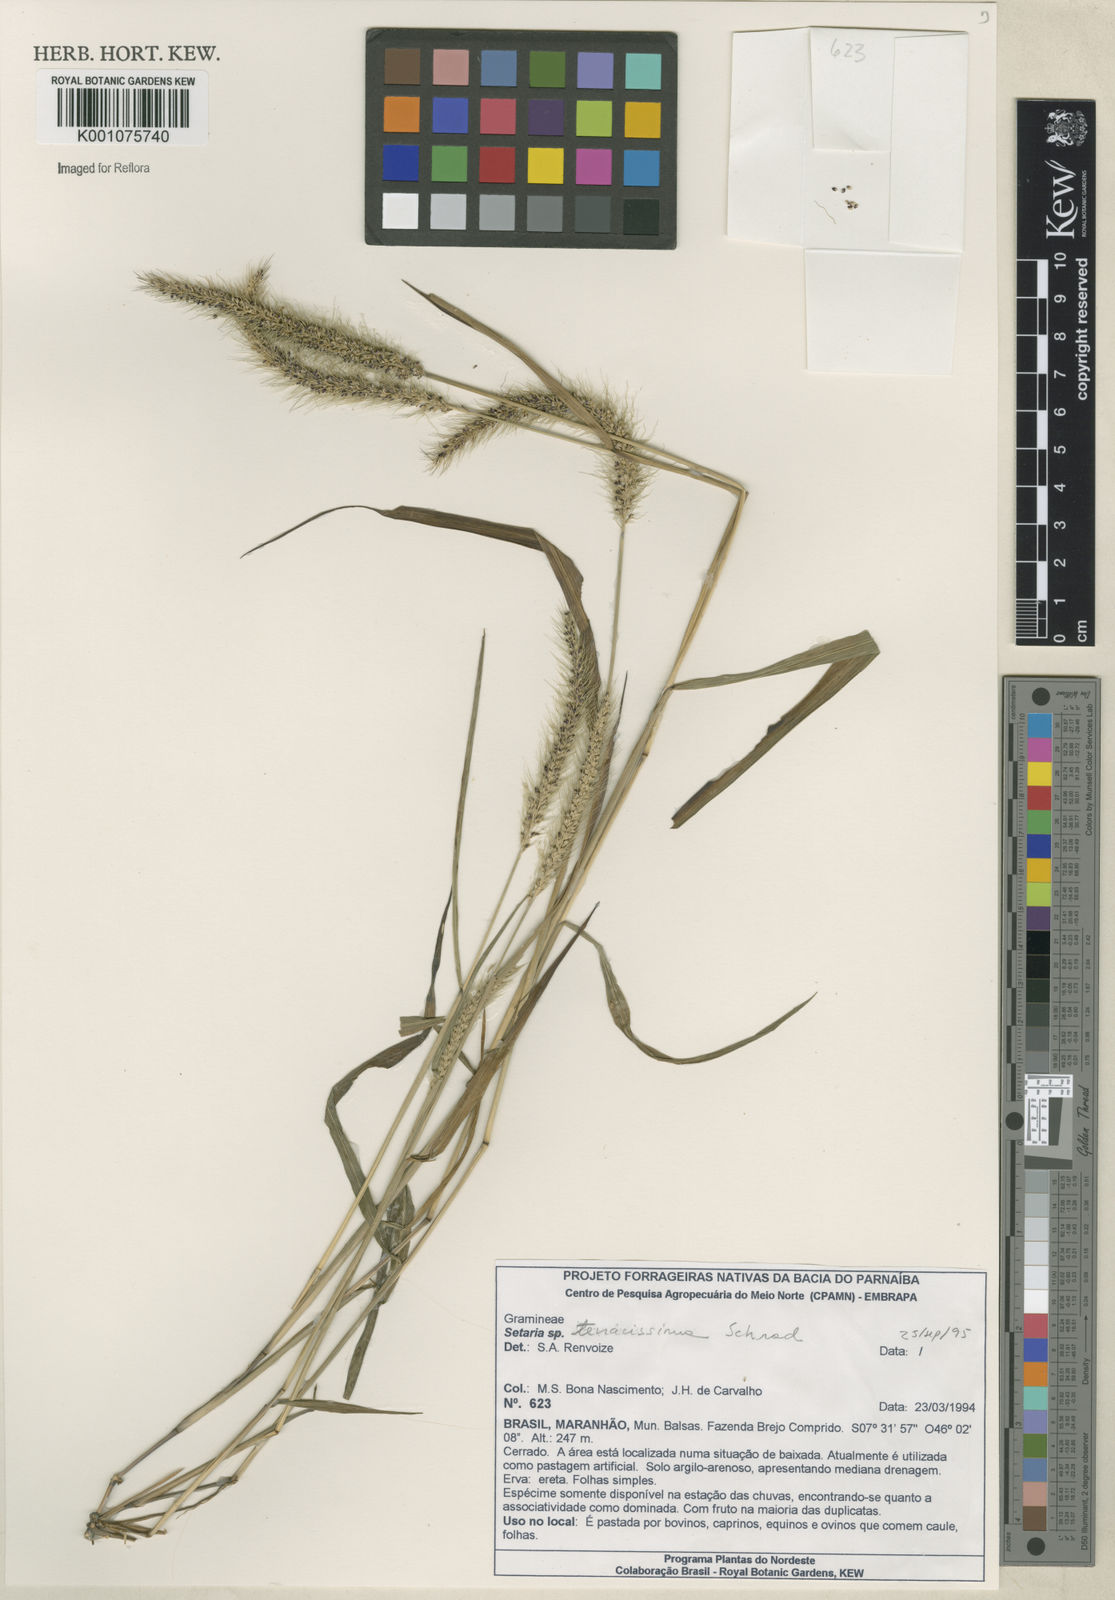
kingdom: Plantae
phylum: Tracheophyta
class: Liliopsida
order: Poales
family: Poaceae
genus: Setaria
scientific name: Setaria tenacissima
